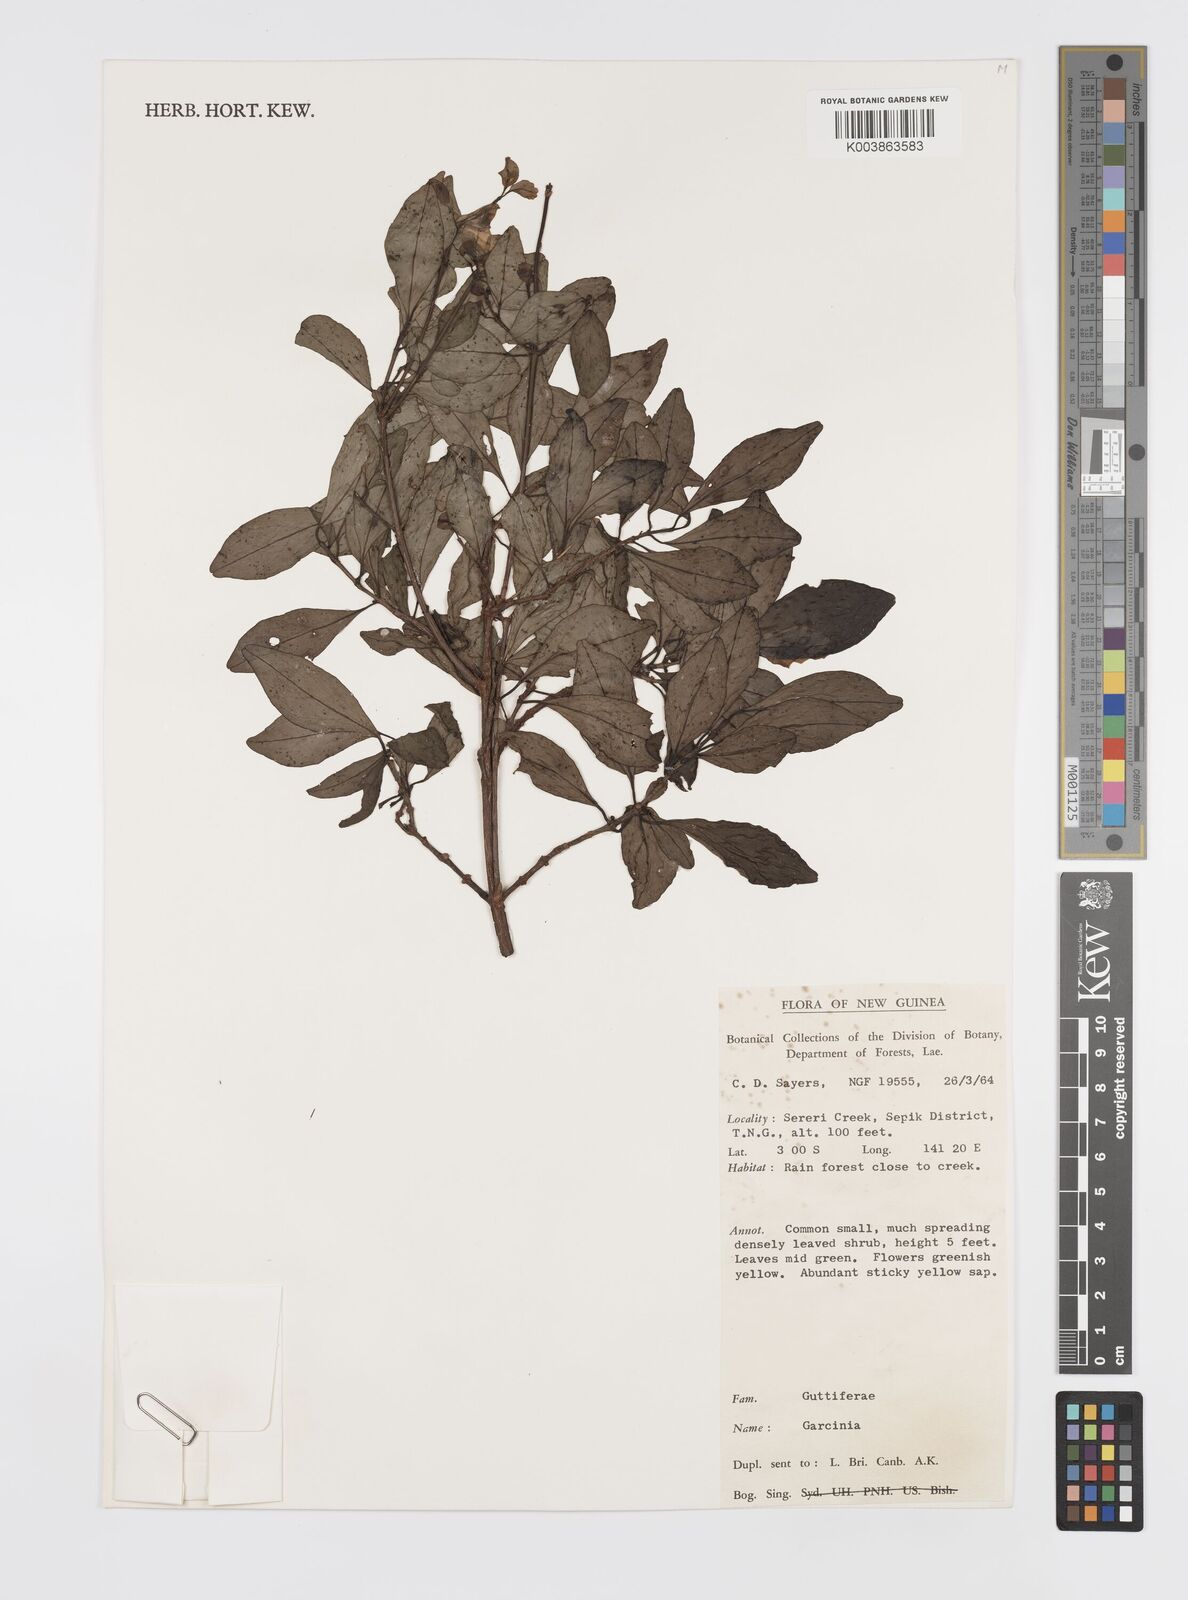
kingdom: Plantae
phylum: Tracheophyta
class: Magnoliopsida
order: Malpighiales
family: Clusiaceae
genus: Garcinia
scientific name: Garcinia
